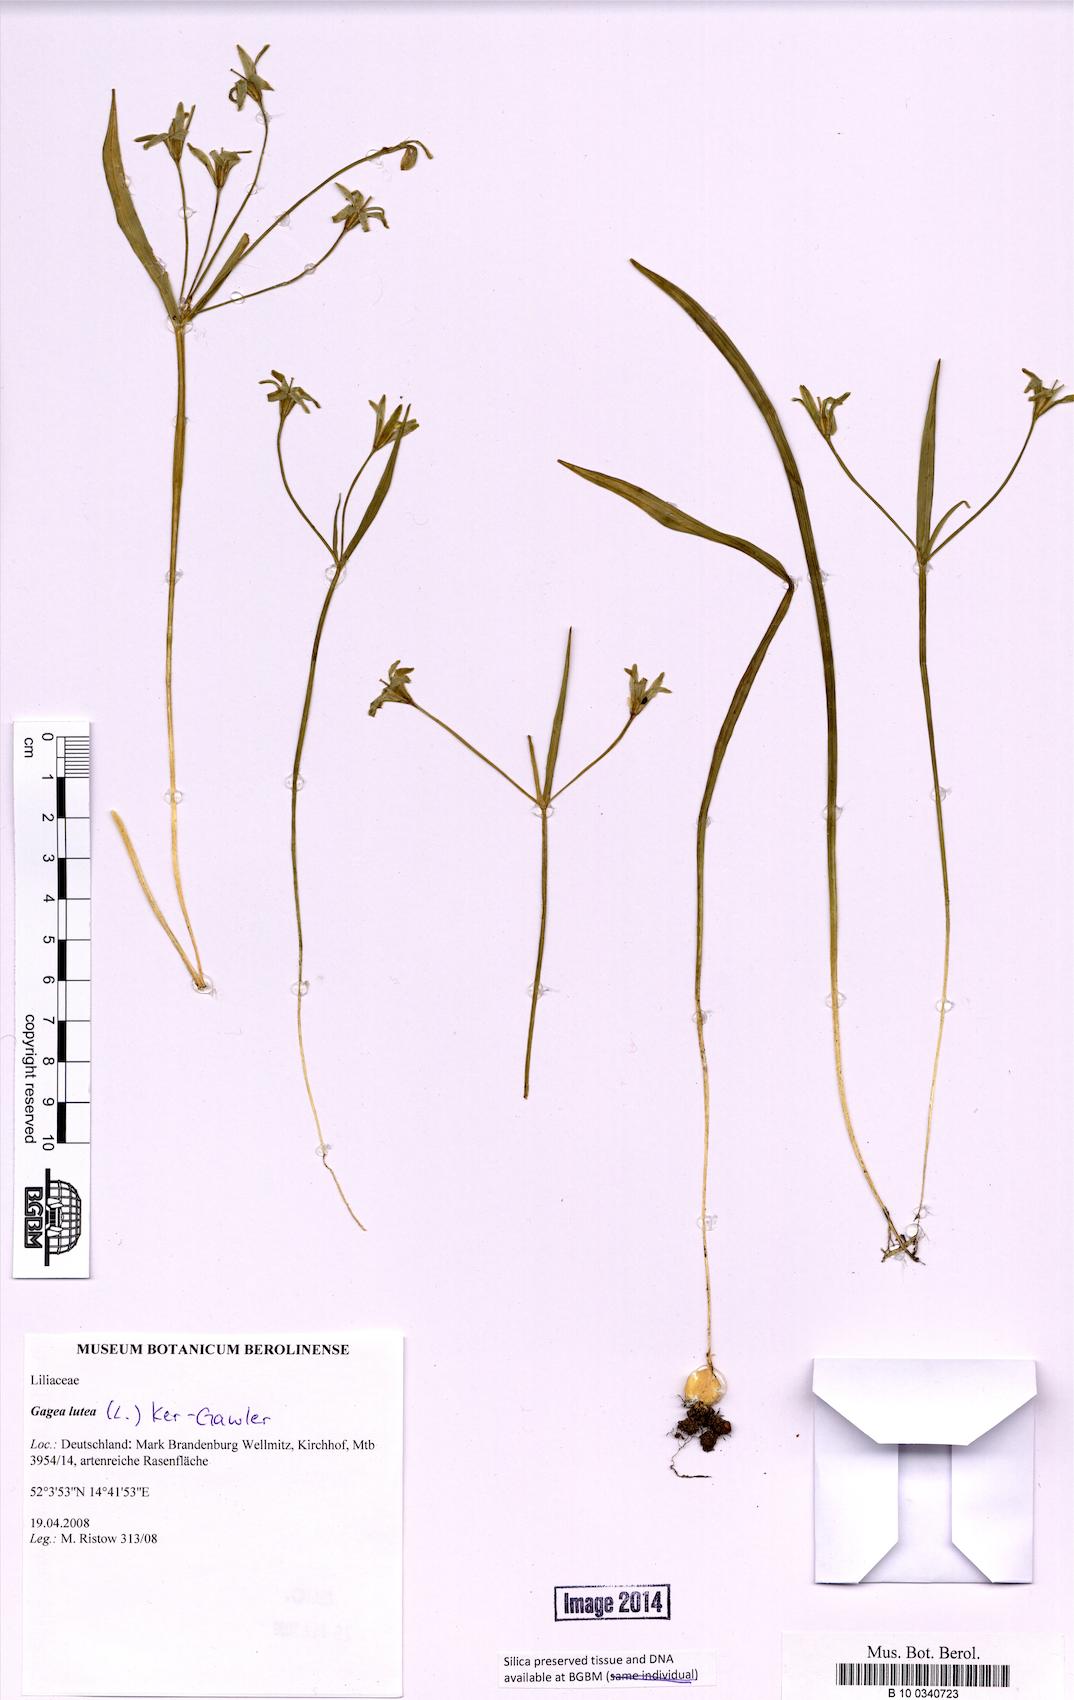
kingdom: Plantae
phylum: Tracheophyta
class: Liliopsida
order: Liliales
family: Liliaceae
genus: Gagea
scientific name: Gagea lutea
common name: Yellow star-of-bethlehem
